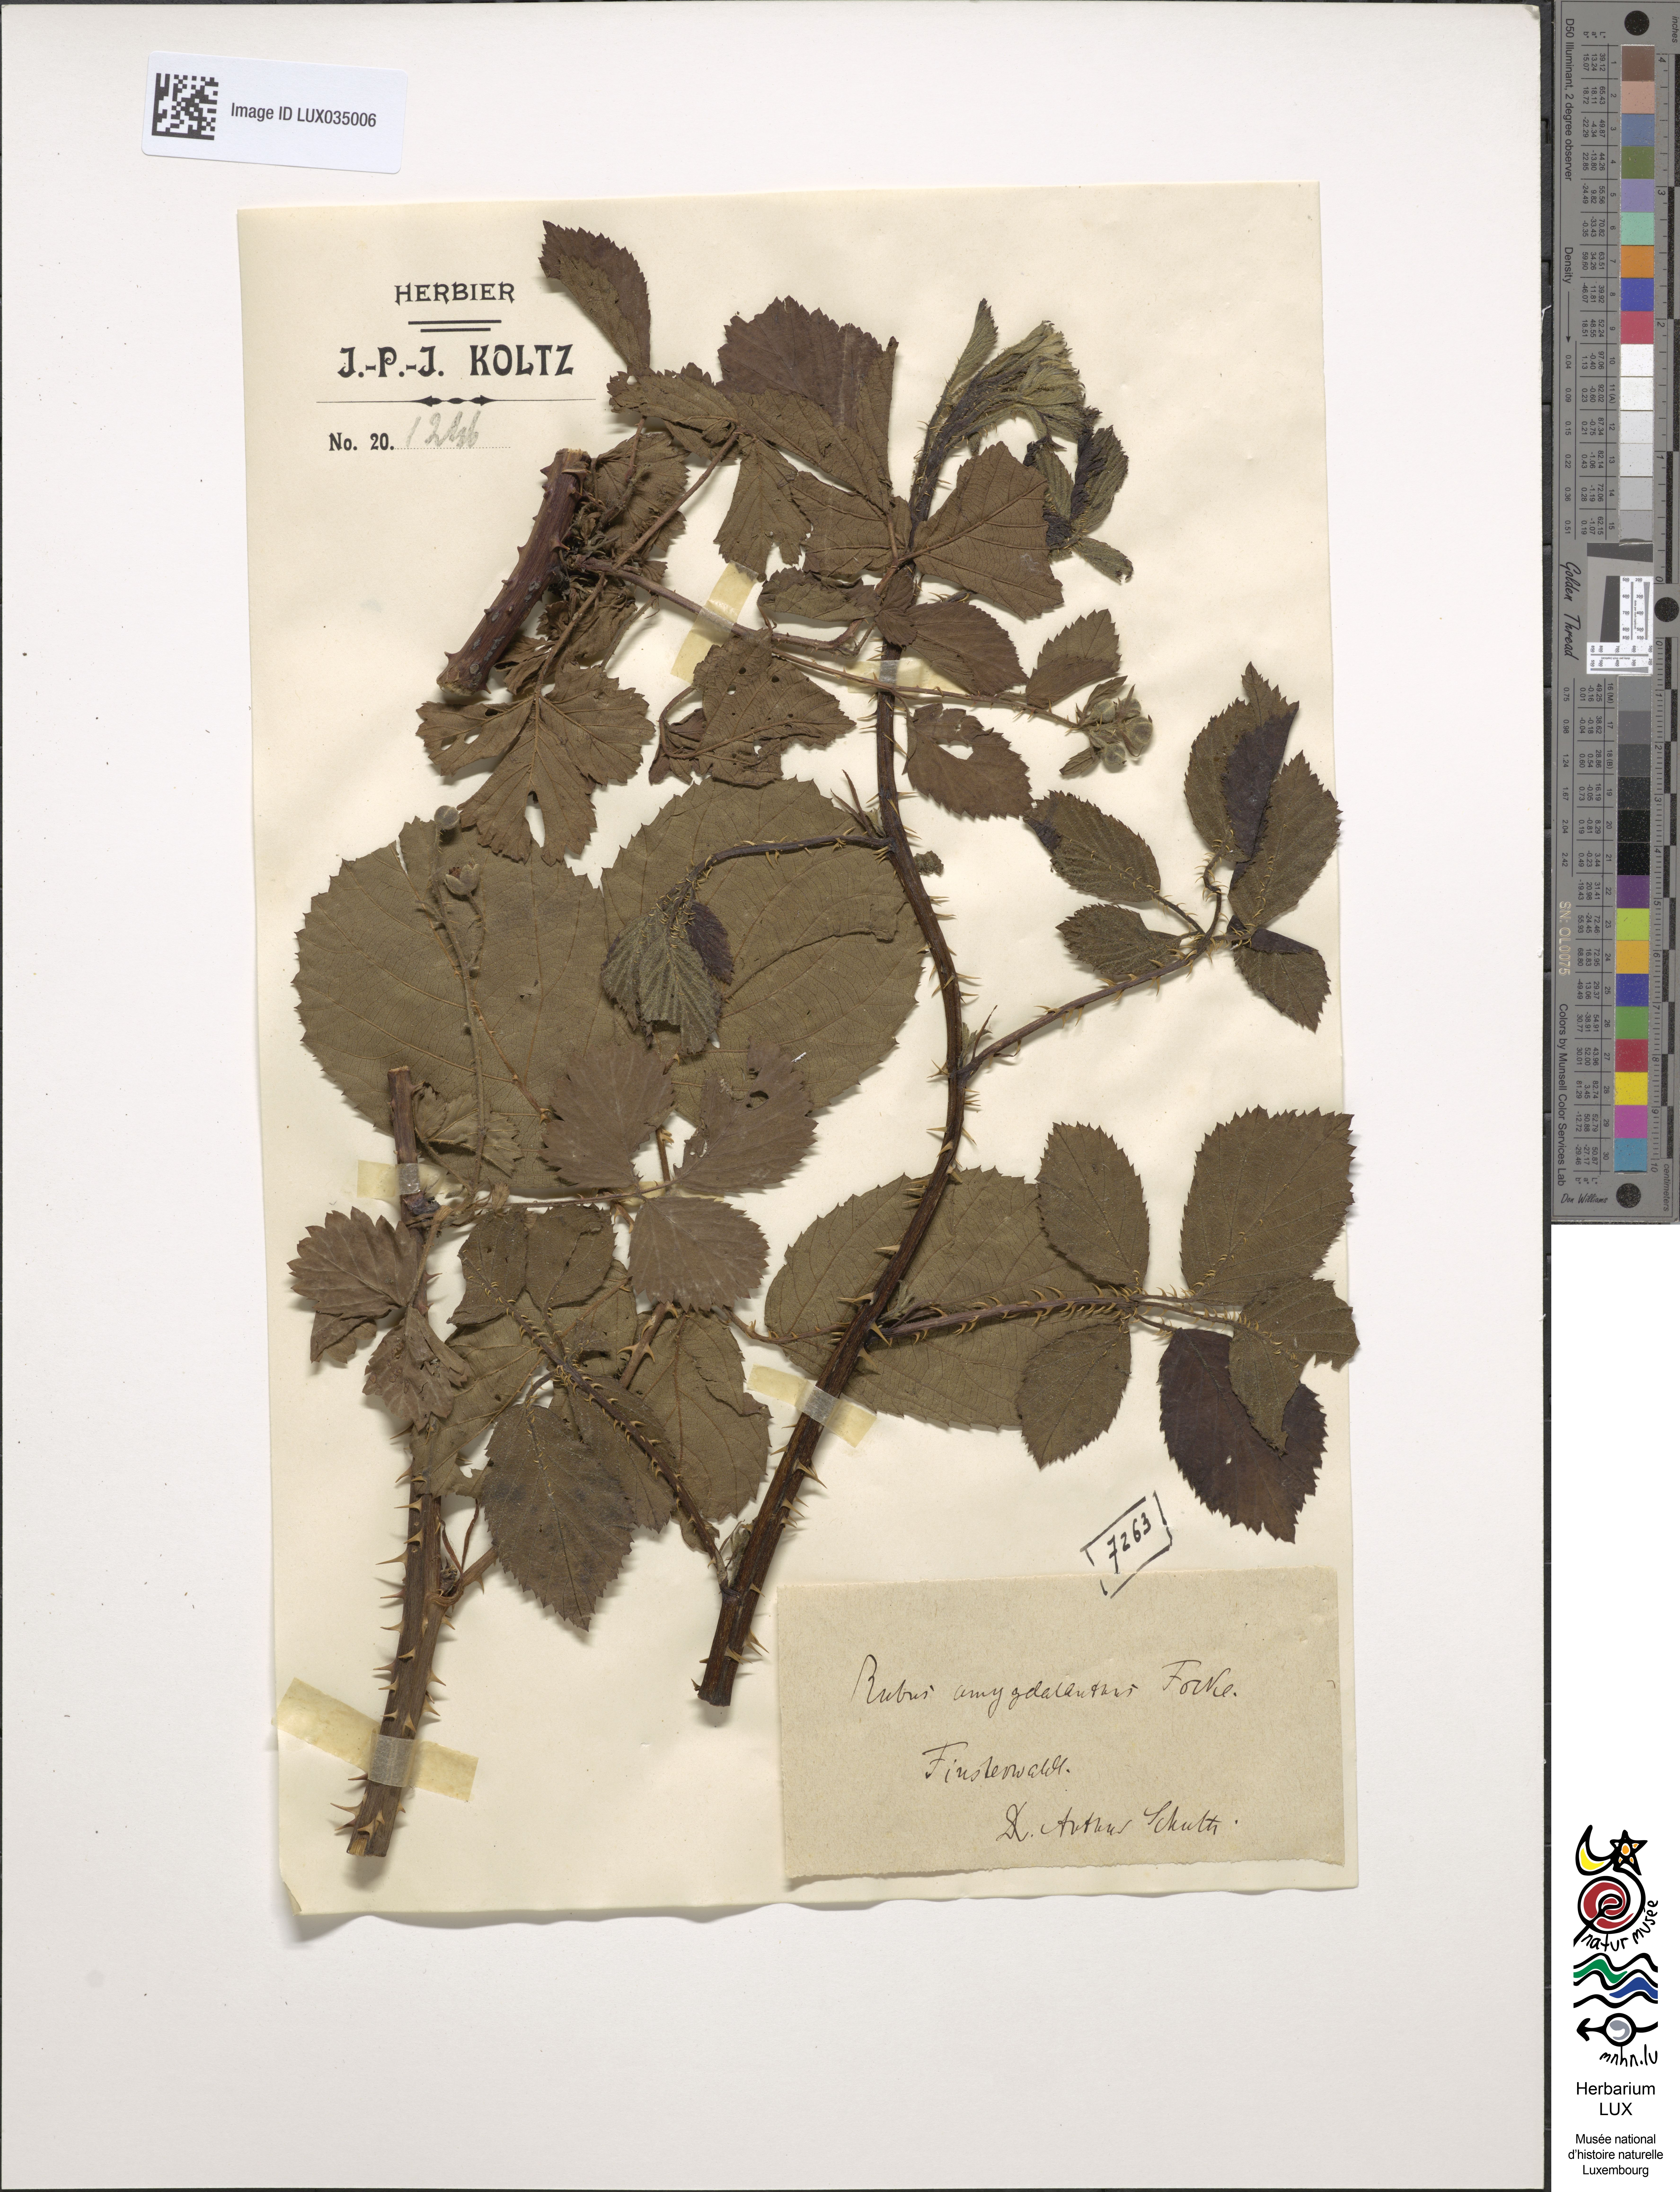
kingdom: Plantae
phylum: Tracheophyta
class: Magnoliopsida
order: Rosales
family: Rosaceae
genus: Rubus
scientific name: Rubus amygdalanthus
